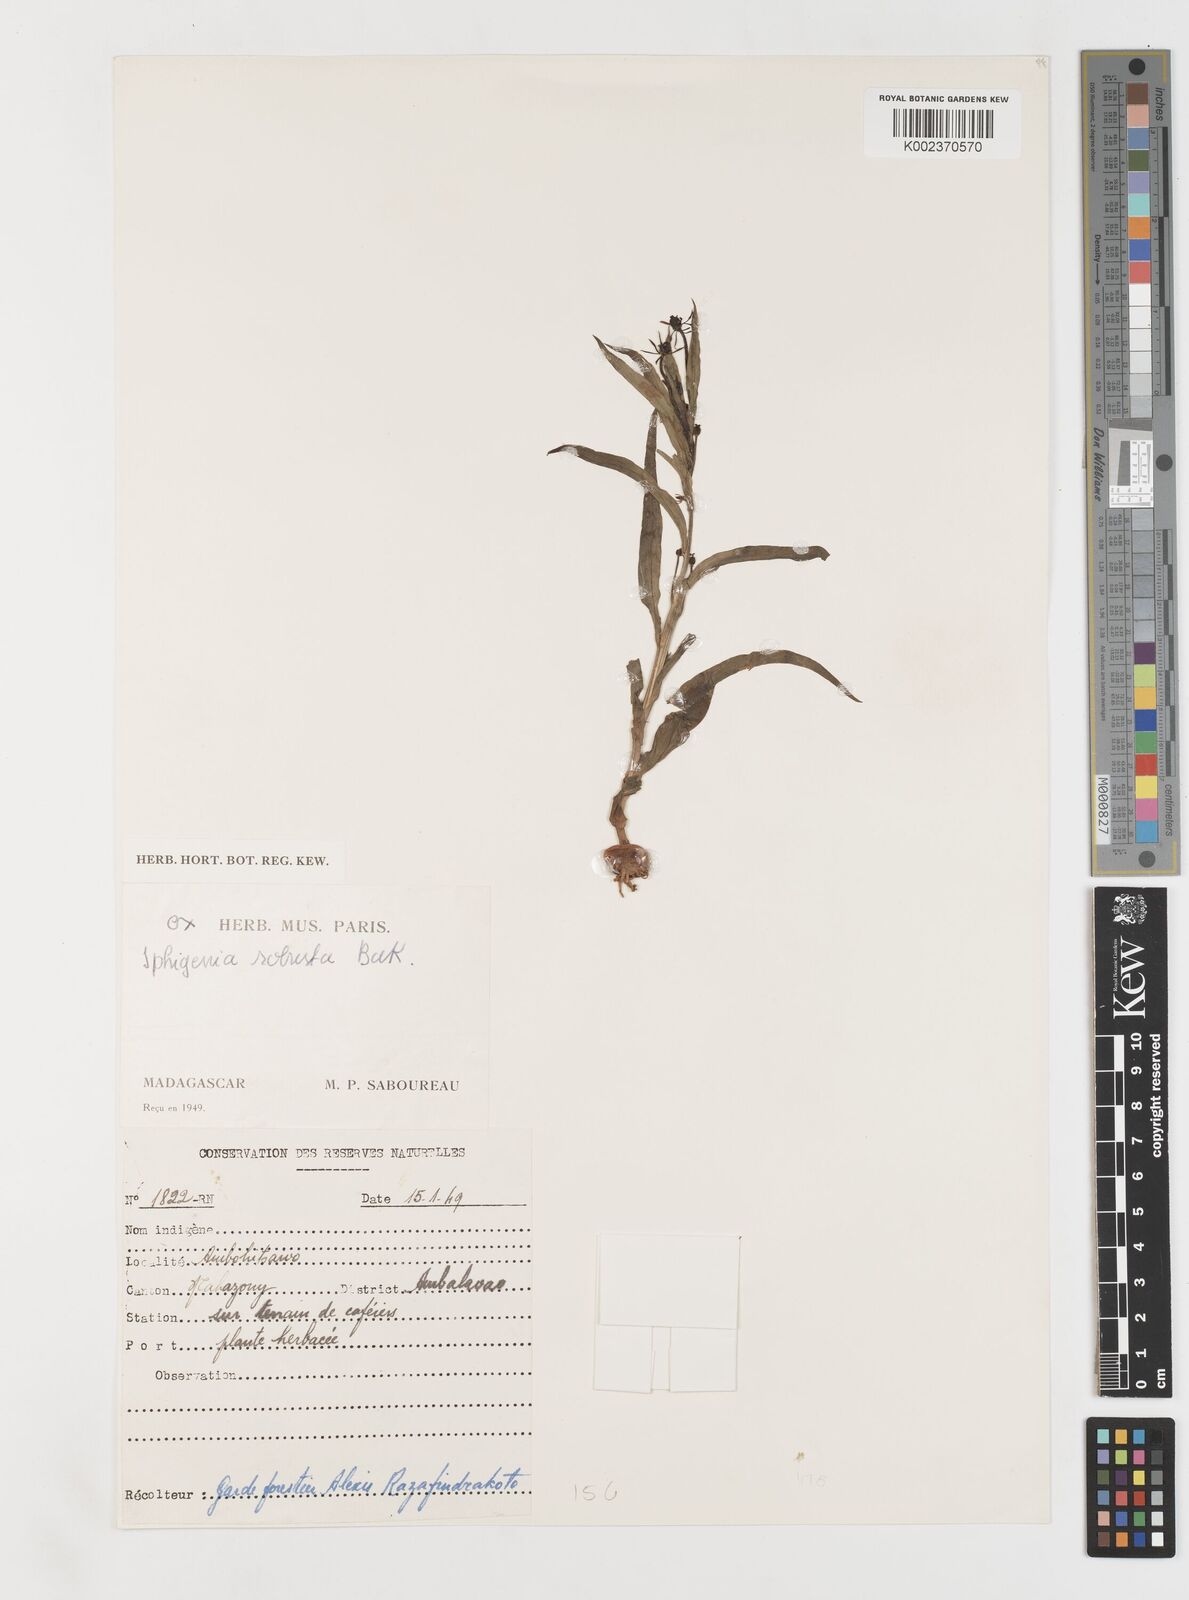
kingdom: Plantae
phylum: Tracheophyta
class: Liliopsida
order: Liliales
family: Colchicaceae
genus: Iphigenia
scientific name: Iphigenia robusta
